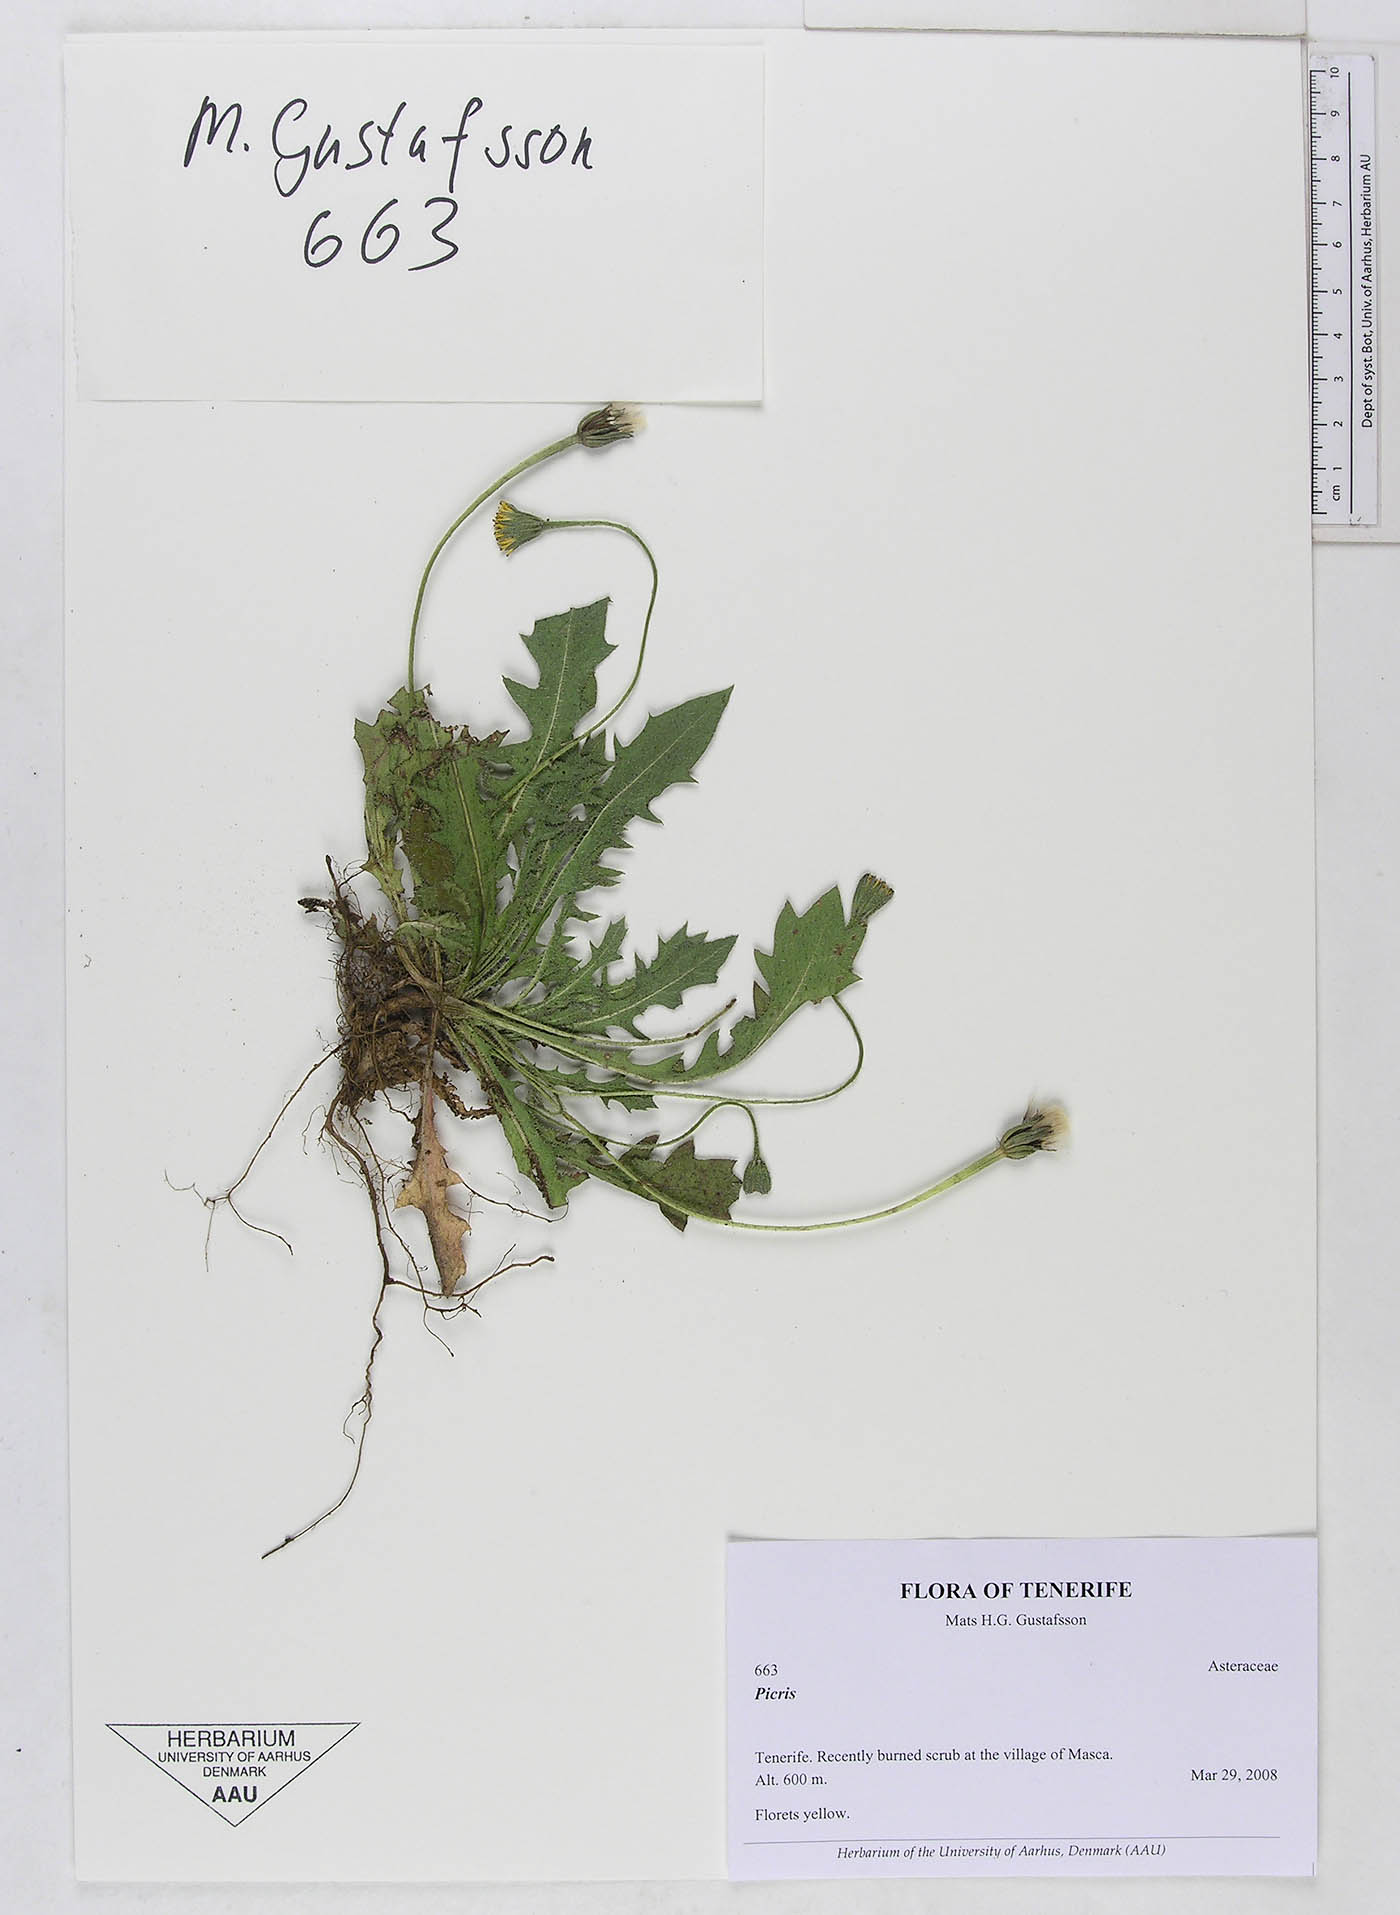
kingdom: Plantae
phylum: Tracheophyta
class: Magnoliopsida
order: Asterales
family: Asteraceae
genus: Picris
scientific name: Picris cupuligera
